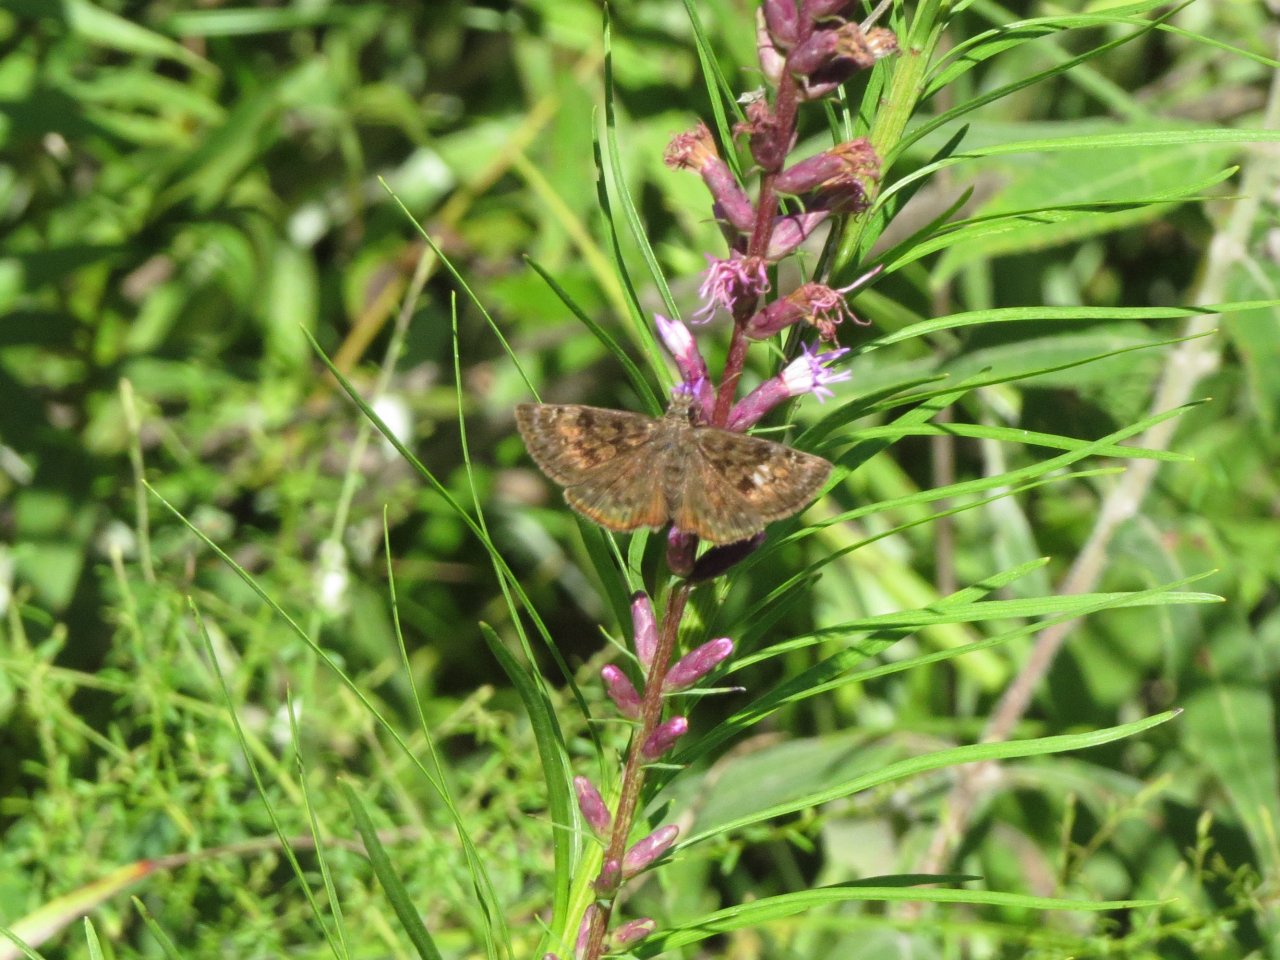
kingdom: Animalia
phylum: Arthropoda
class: Insecta
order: Lepidoptera
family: Hesperiidae
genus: Erynnis
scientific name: Erynnis martialis
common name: Mottled Duskywing
